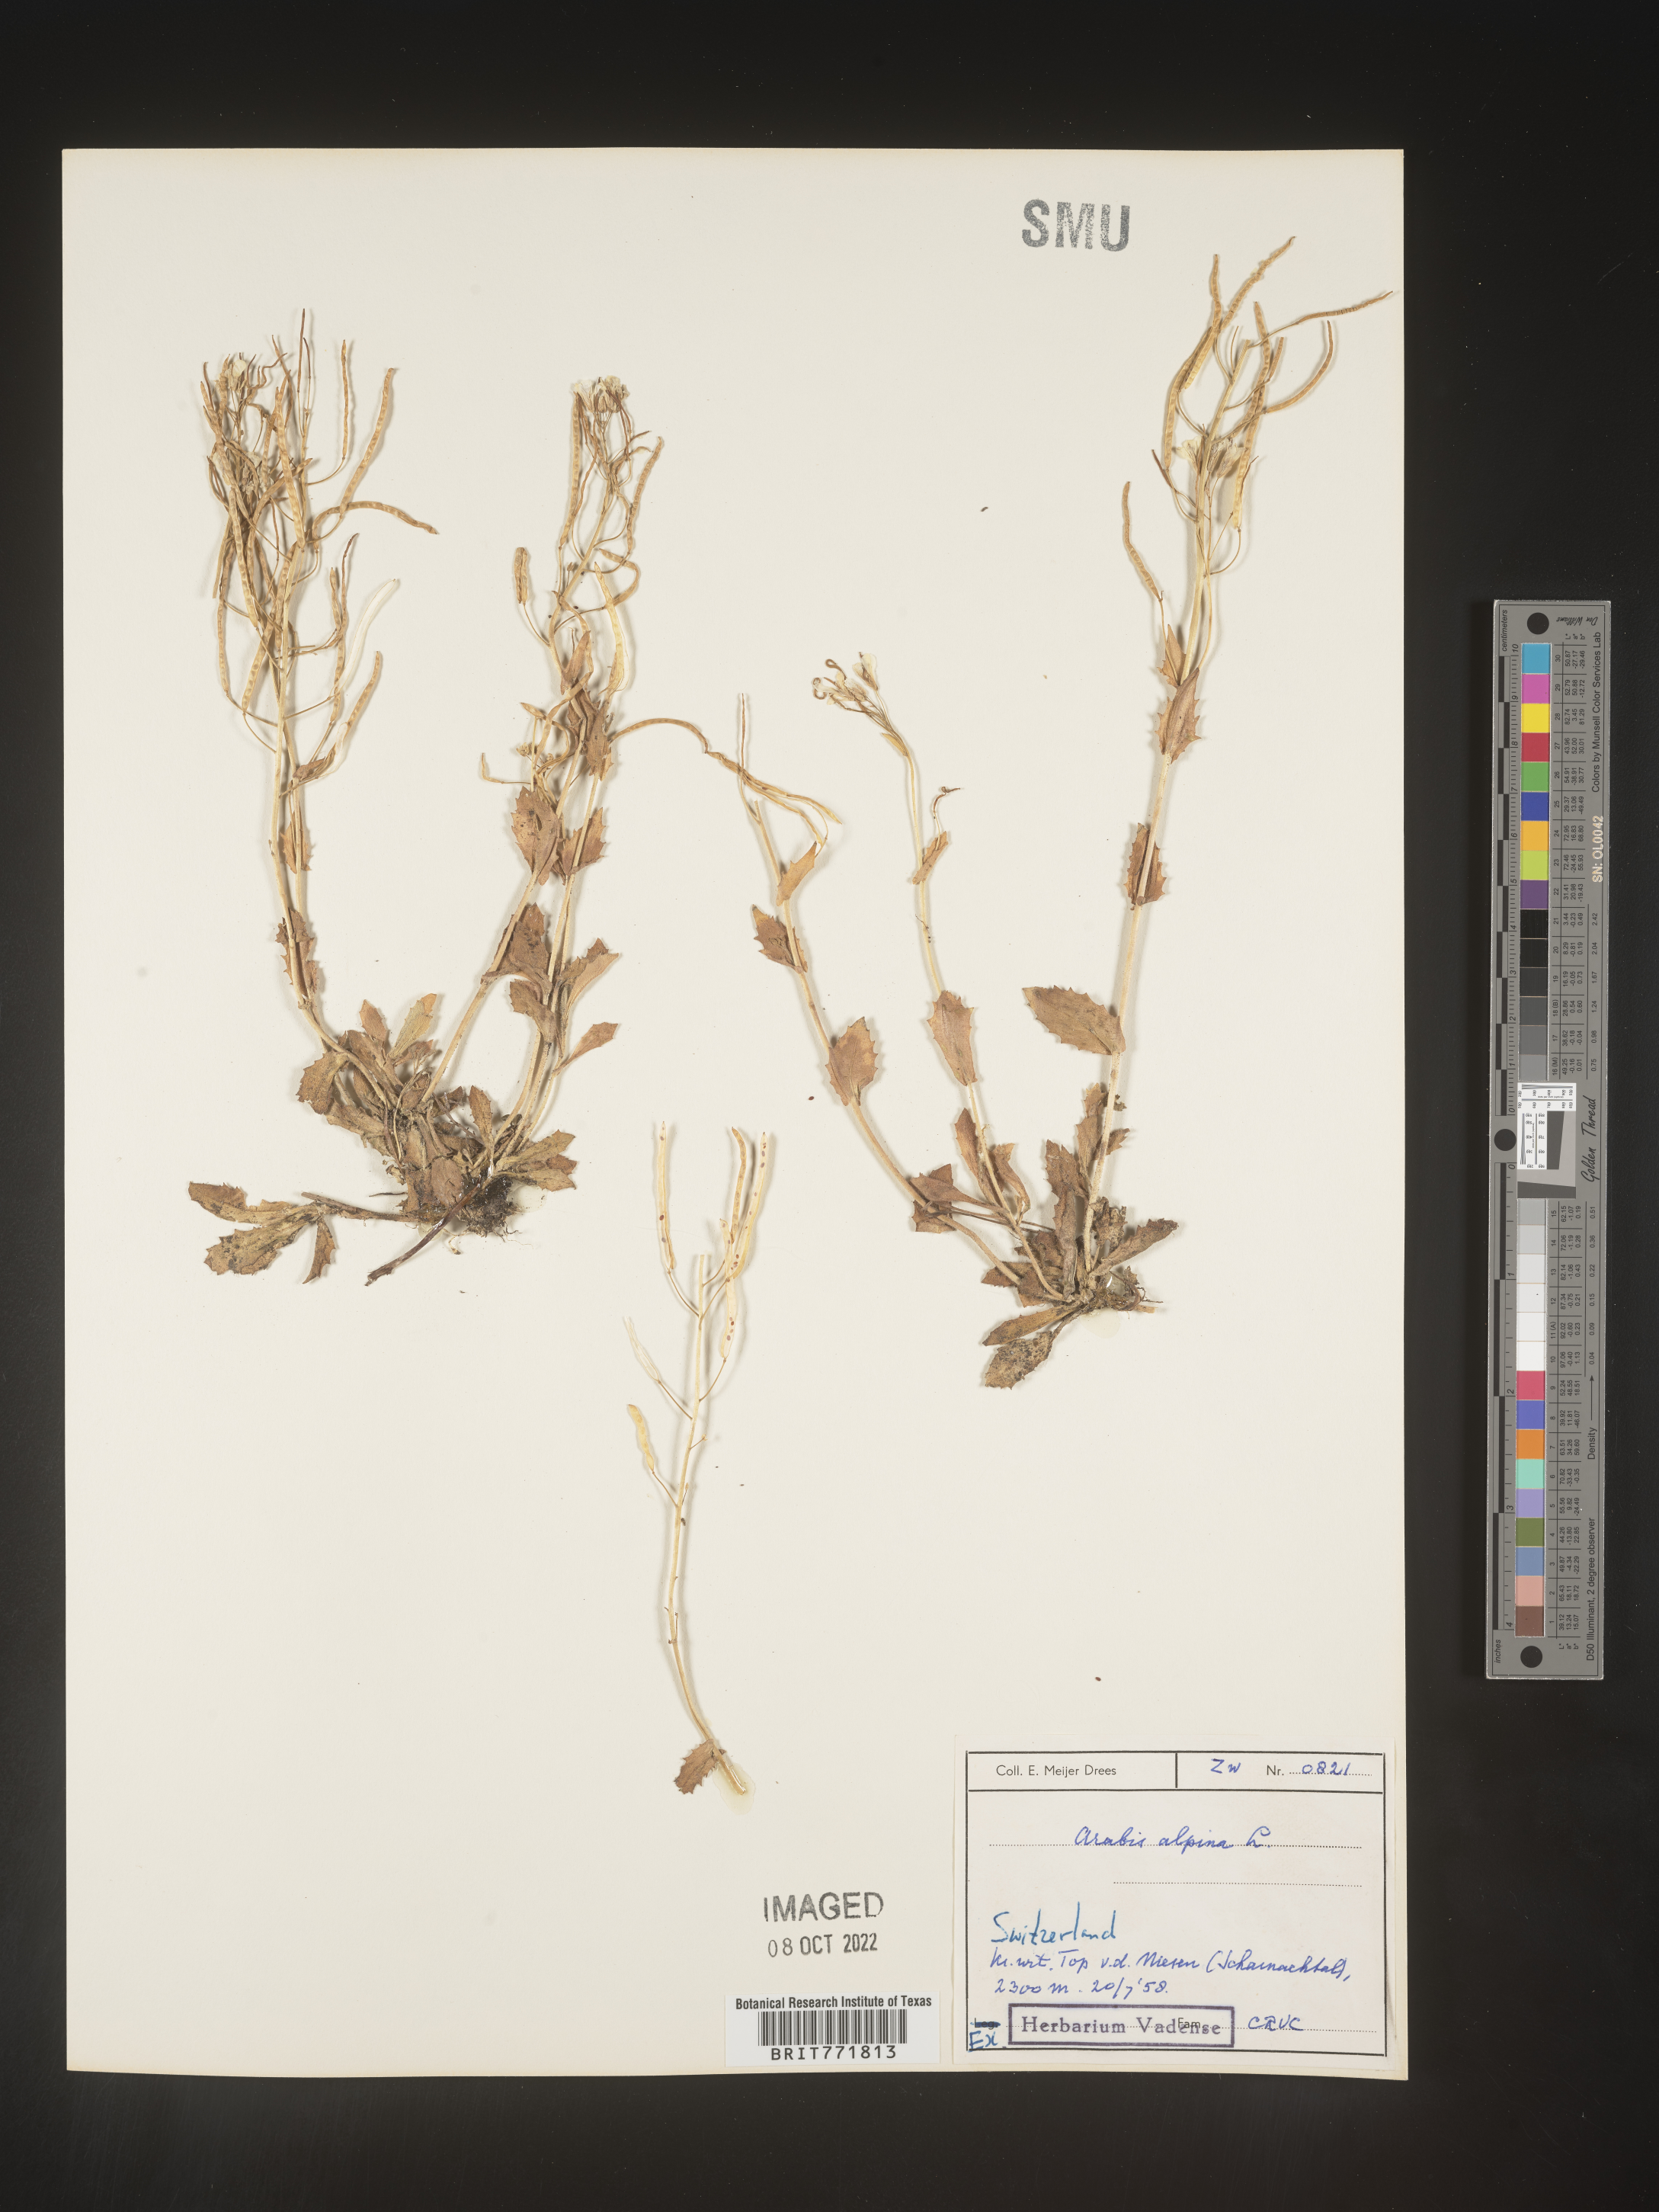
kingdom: Plantae
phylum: Tracheophyta
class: Magnoliopsida
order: Brassicales
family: Brassicaceae
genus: Arabis
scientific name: Arabis
